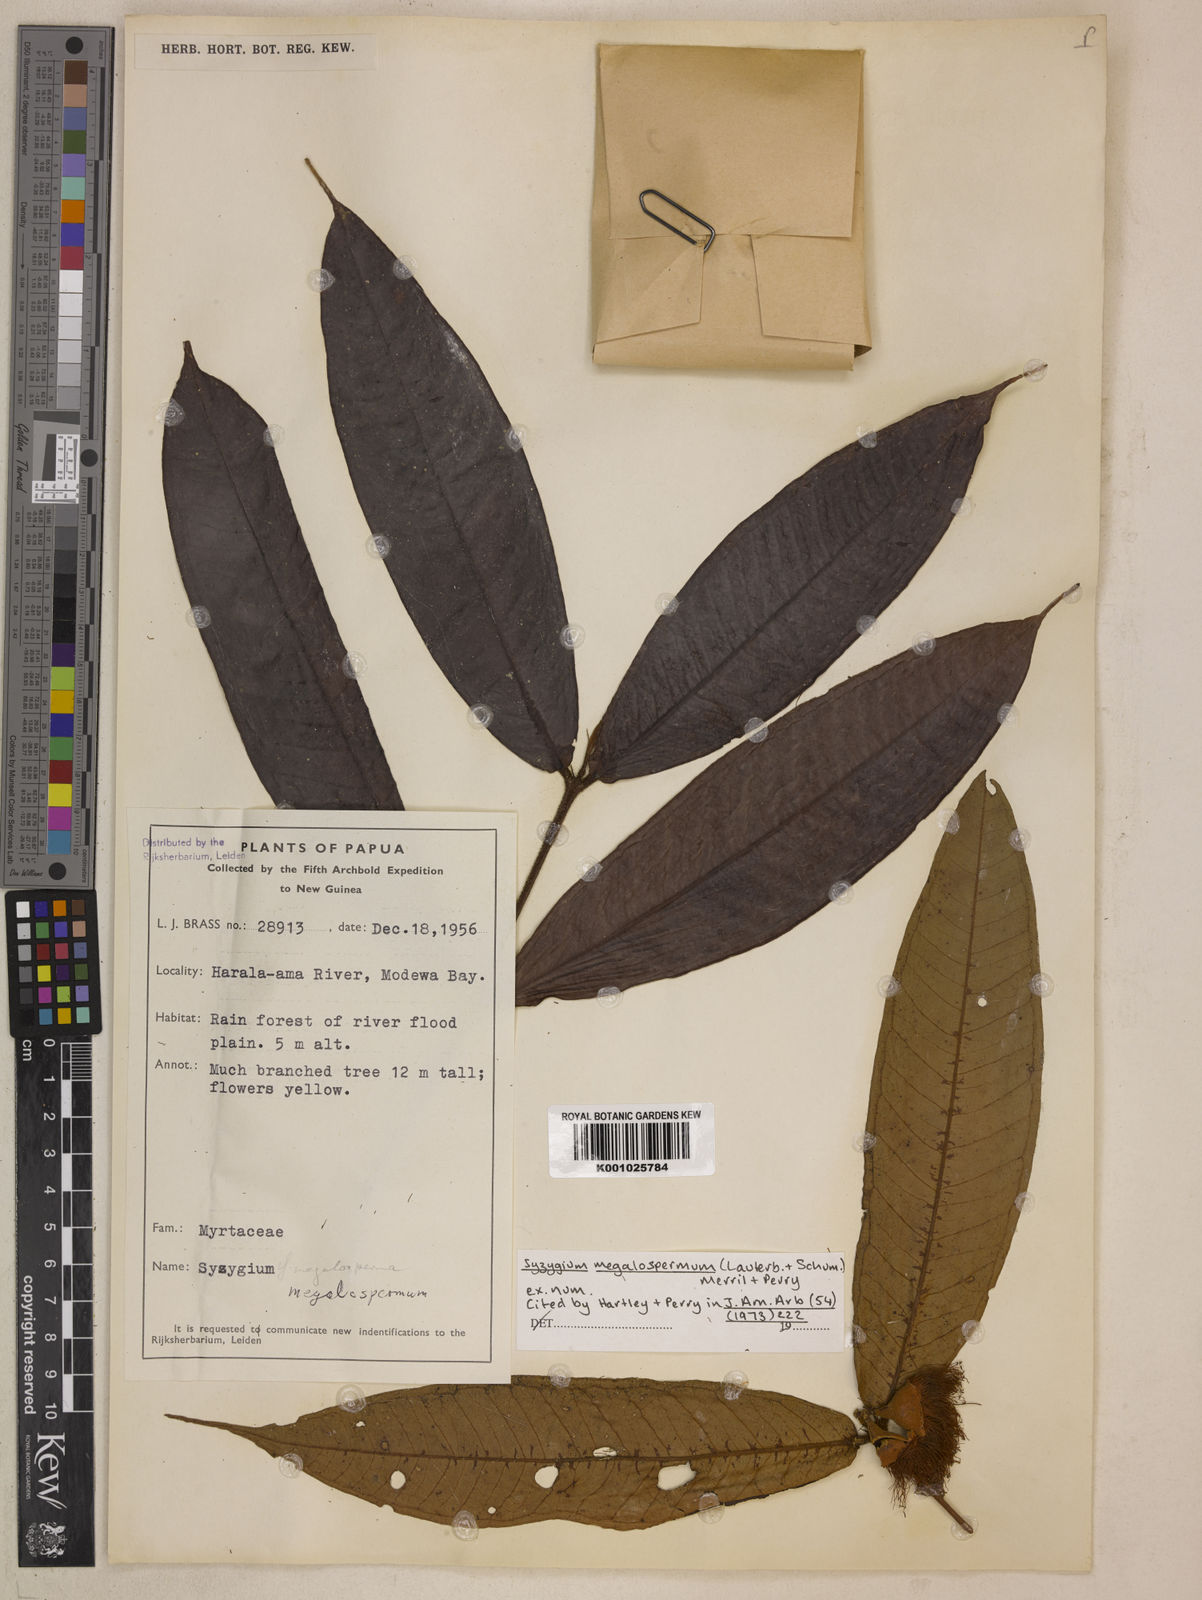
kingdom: Plantae
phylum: Tracheophyta
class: Magnoliopsida
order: Myrtales
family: Myrtaceae
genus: Syzygium
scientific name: Syzygium megalospermum
